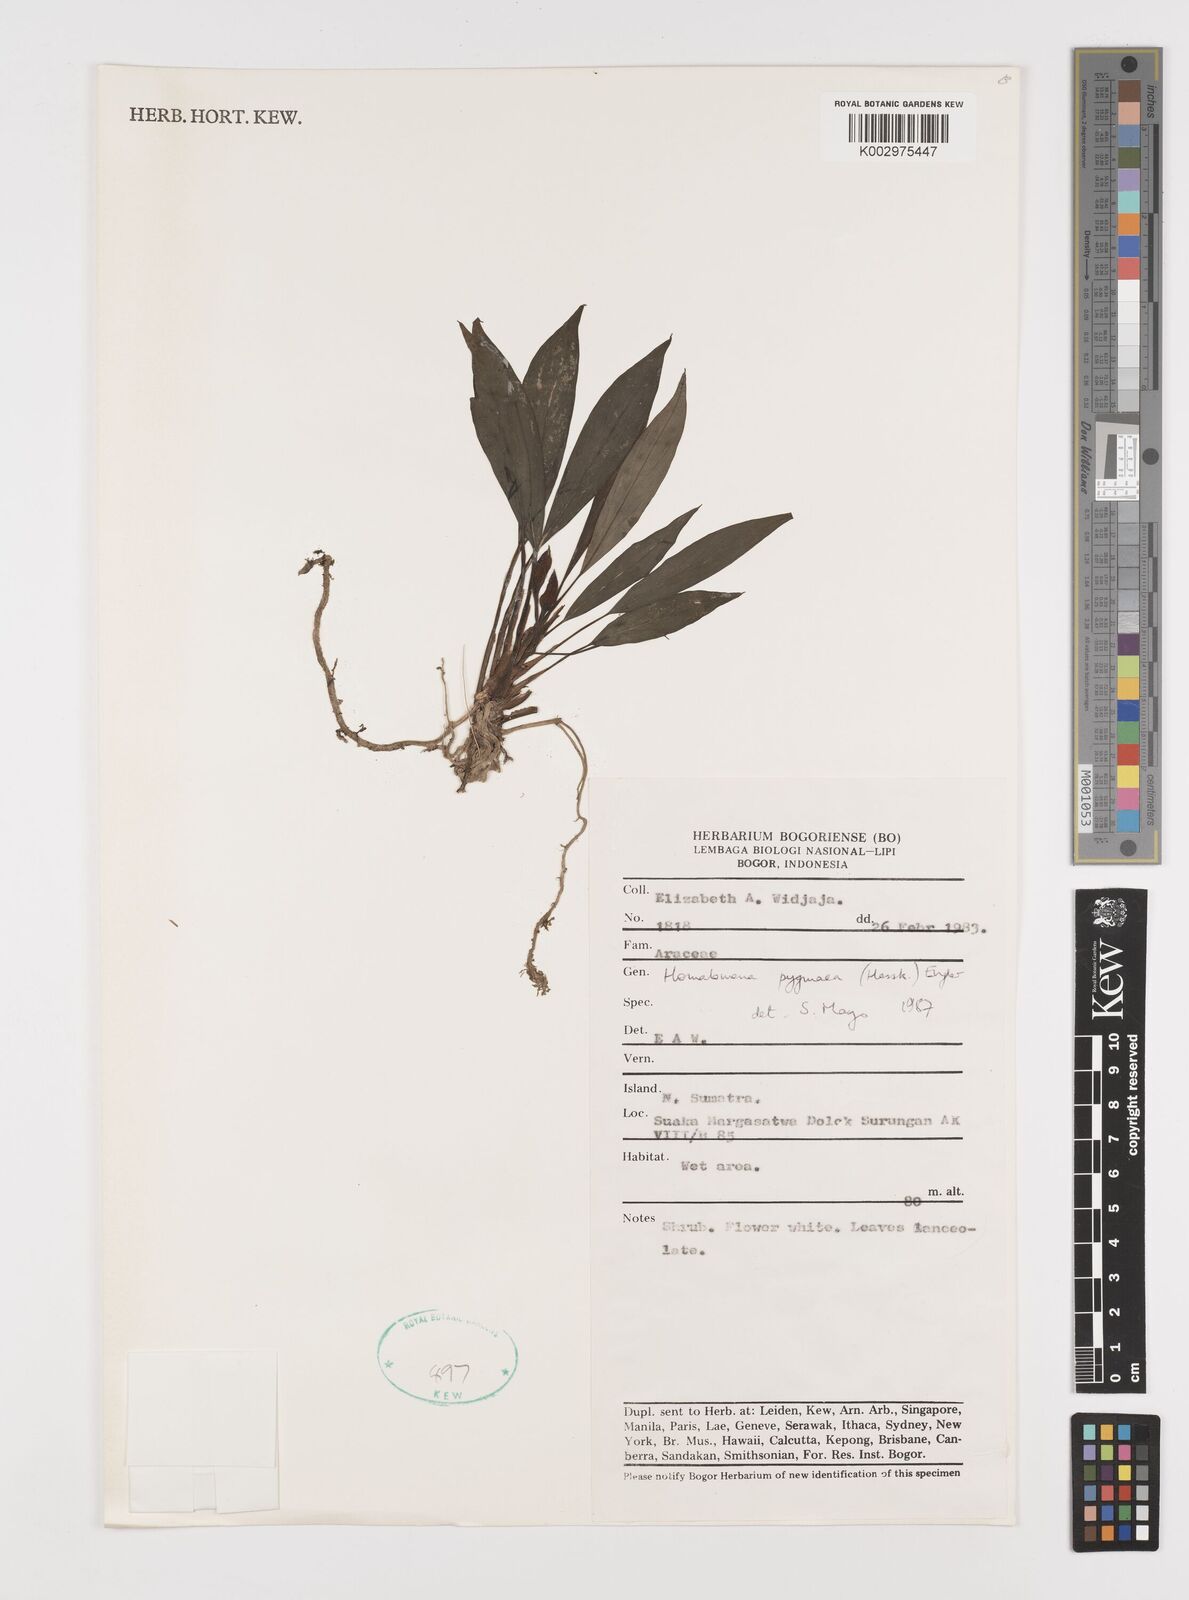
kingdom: Plantae
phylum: Tracheophyta
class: Liliopsida
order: Alismatales
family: Araceae
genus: Homalomena
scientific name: Homalomena humilis
